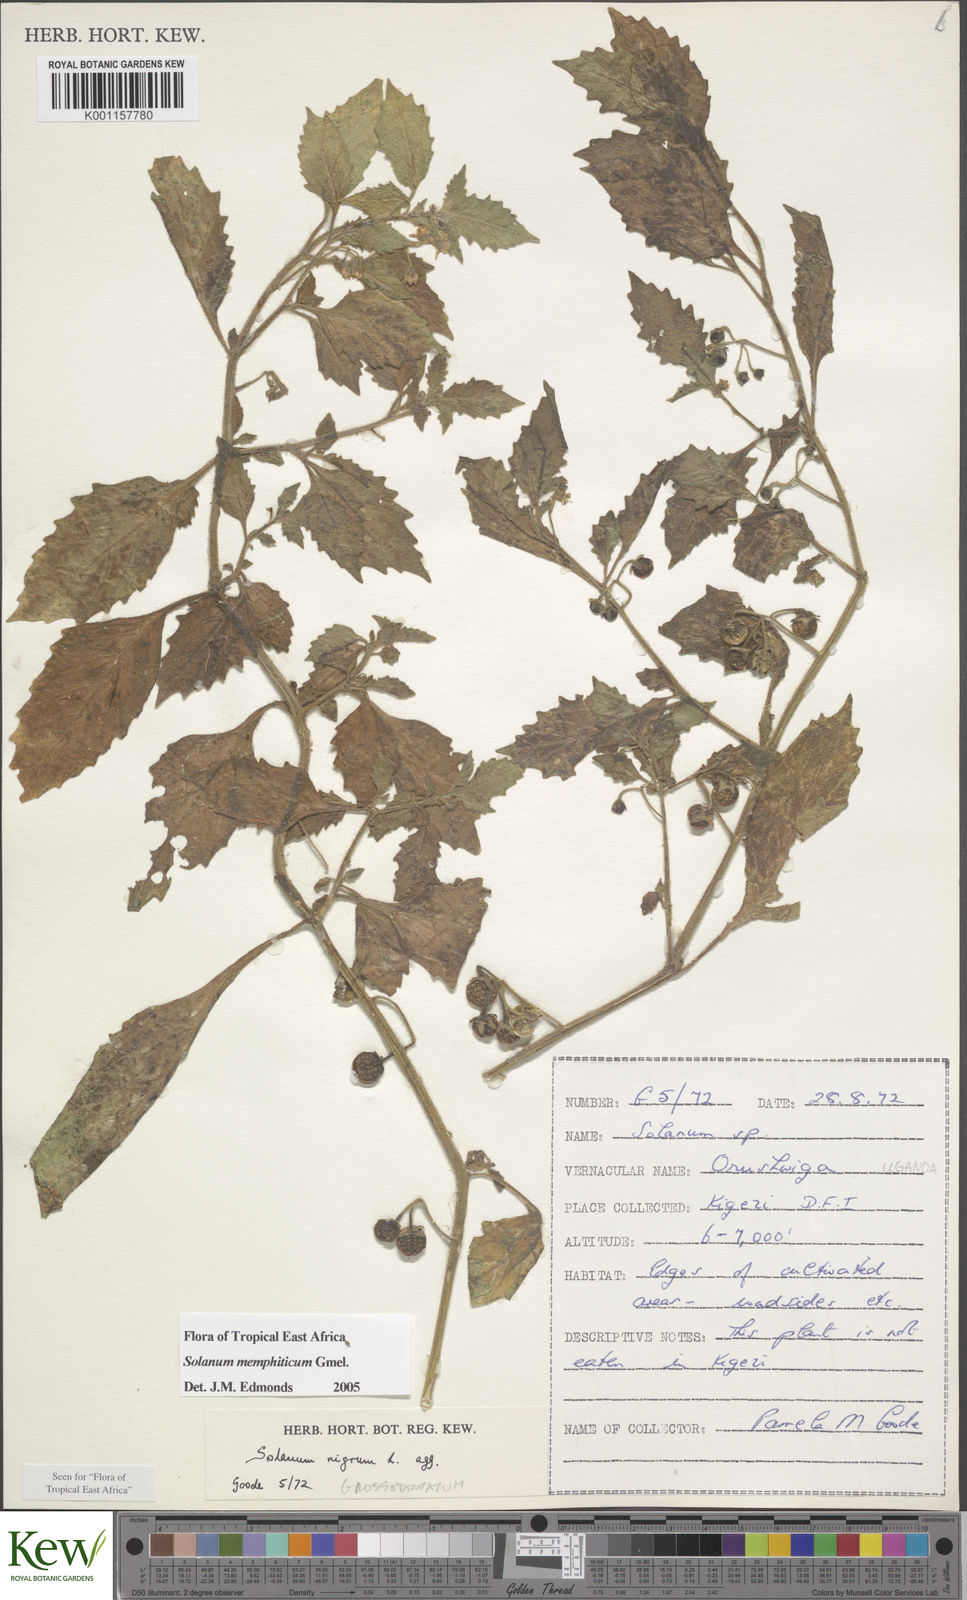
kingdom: Plantae
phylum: Tracheophyta
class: Magnoliopsida
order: Solanales
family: Solanaceae
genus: Solanum
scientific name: Solanum memphiticum
